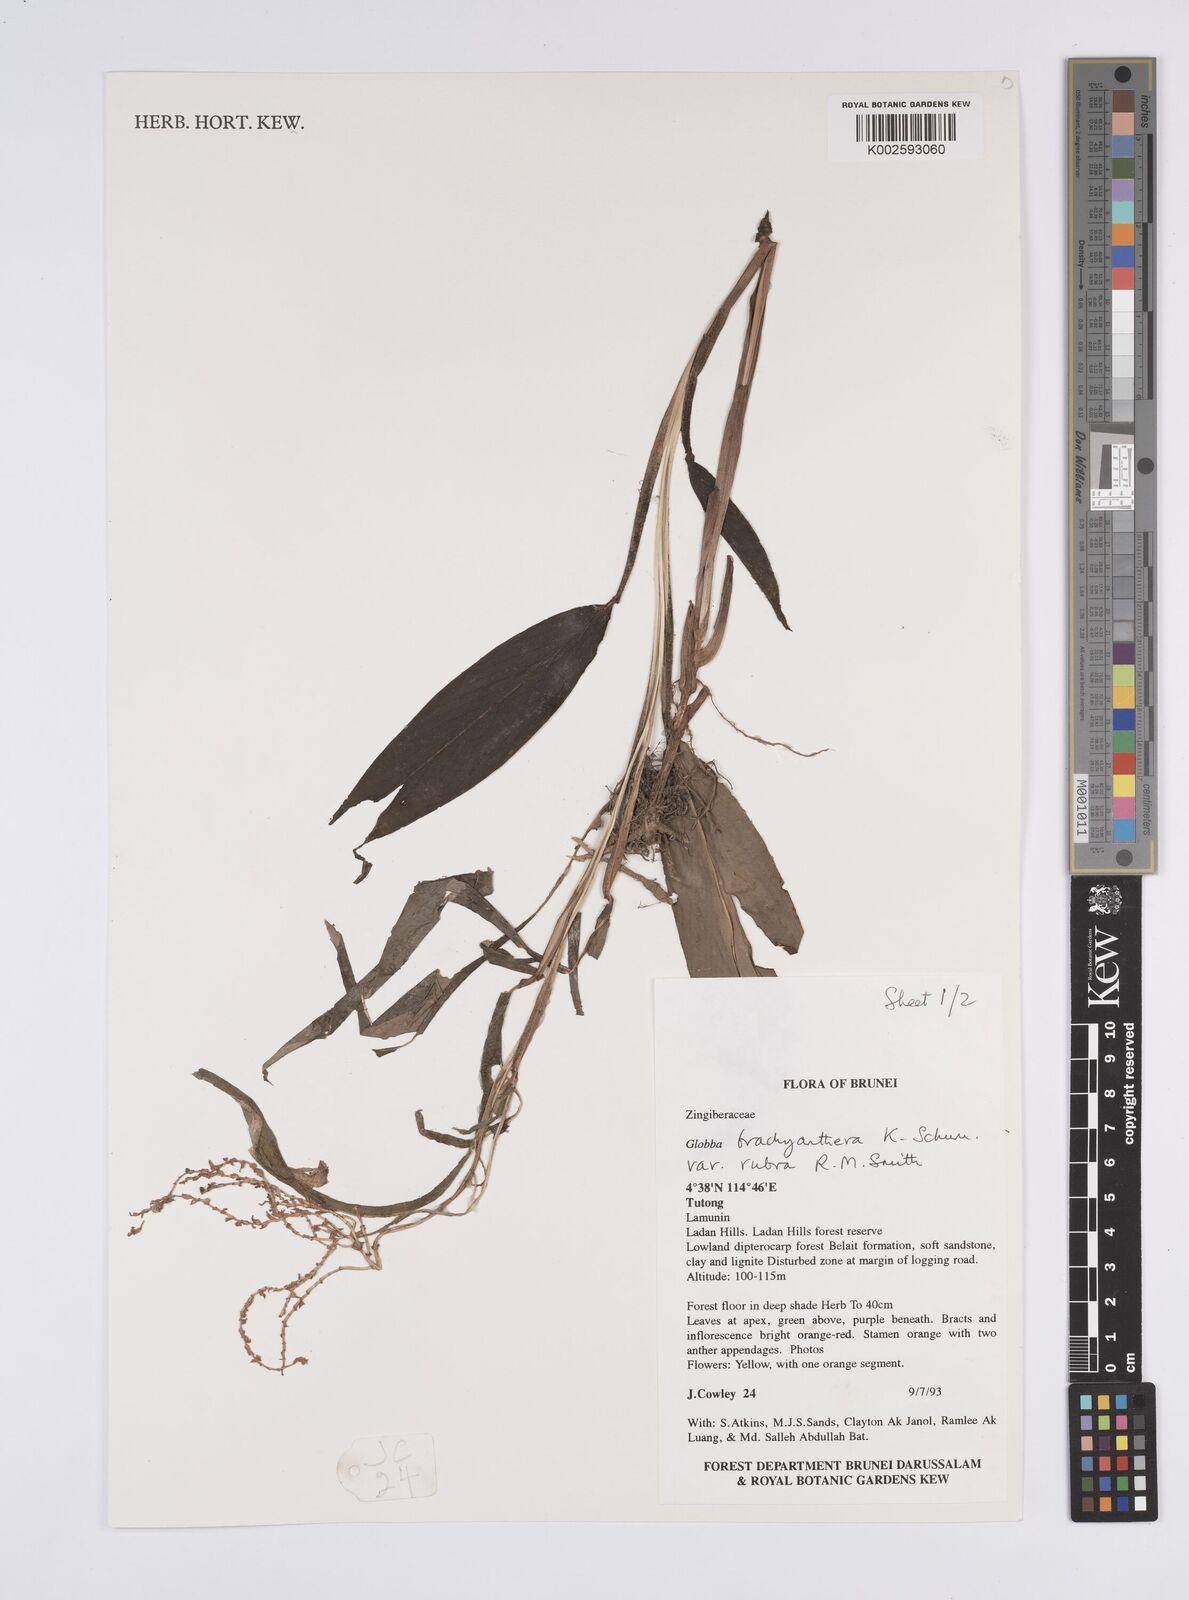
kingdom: Plantae
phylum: Tracheophyta
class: Liliopsida
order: Zingiberales
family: Zingiberaceae
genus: Globba
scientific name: Globba brachyanthera
